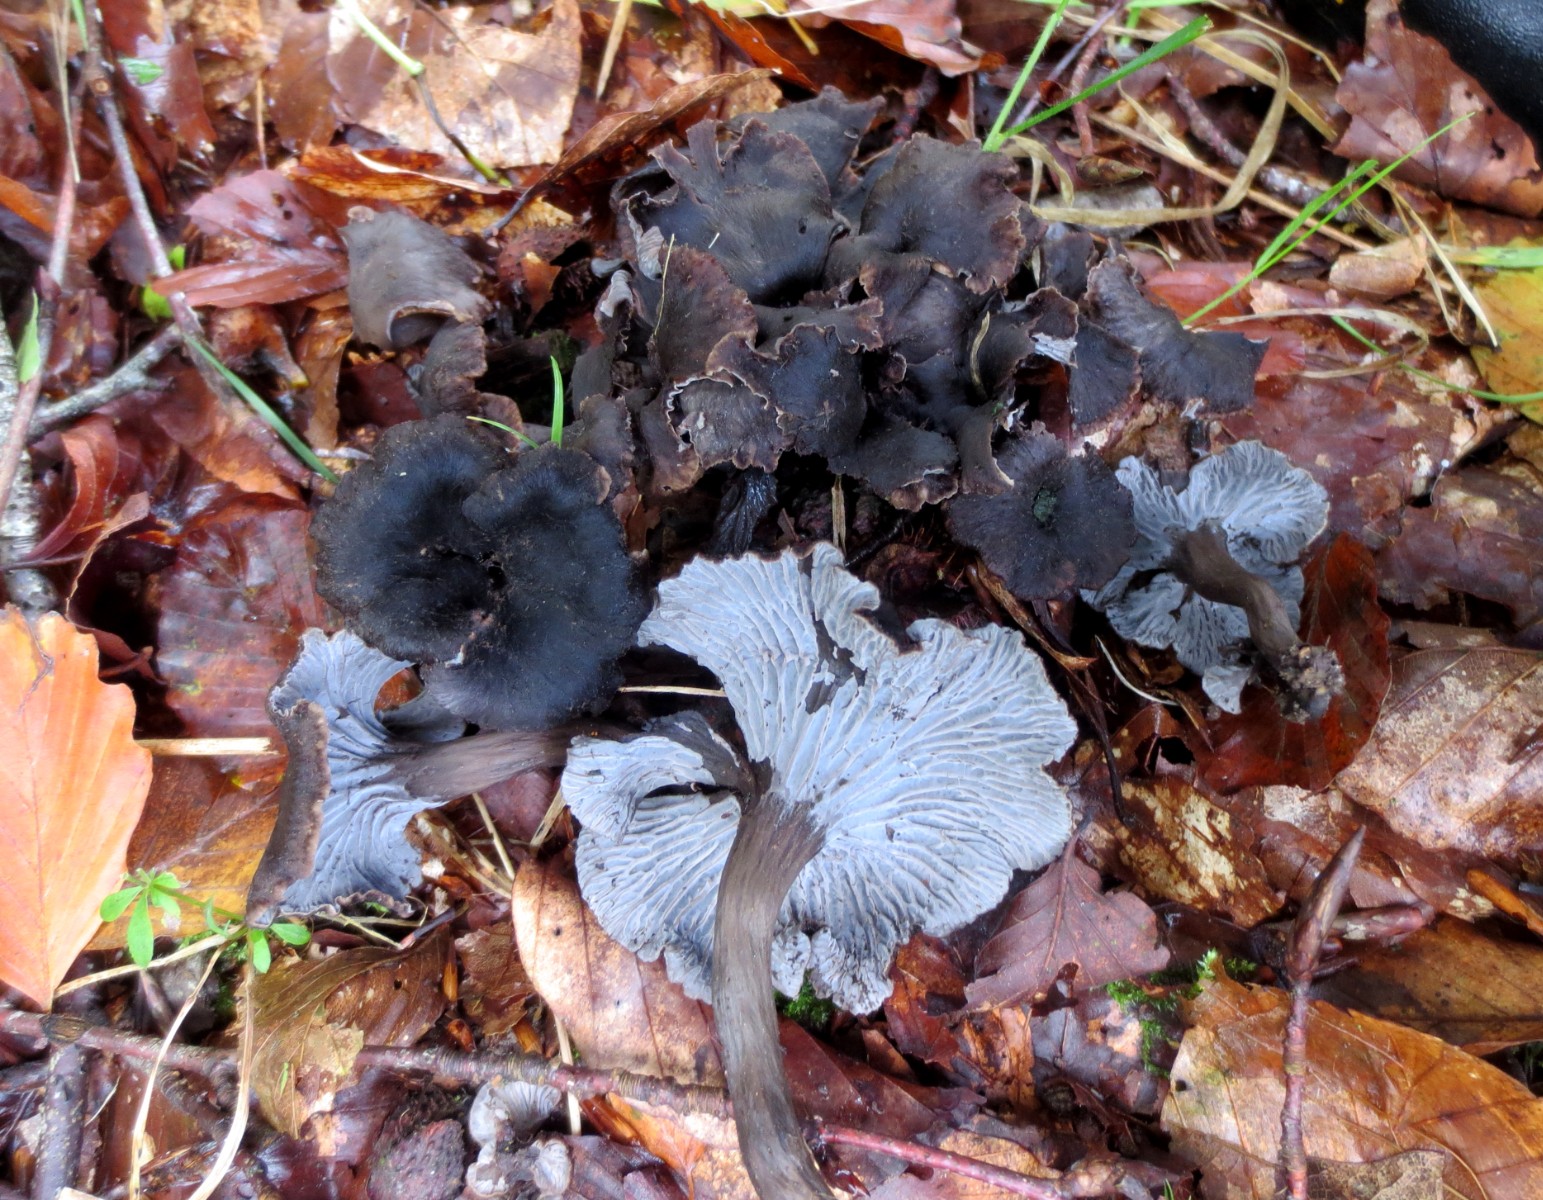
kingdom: Fungi
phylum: Basidiomycota
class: Agaricomycetes
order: Cantharellales
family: Hydnaceae
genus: Cantharellus
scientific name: Cantharellus cinereus
